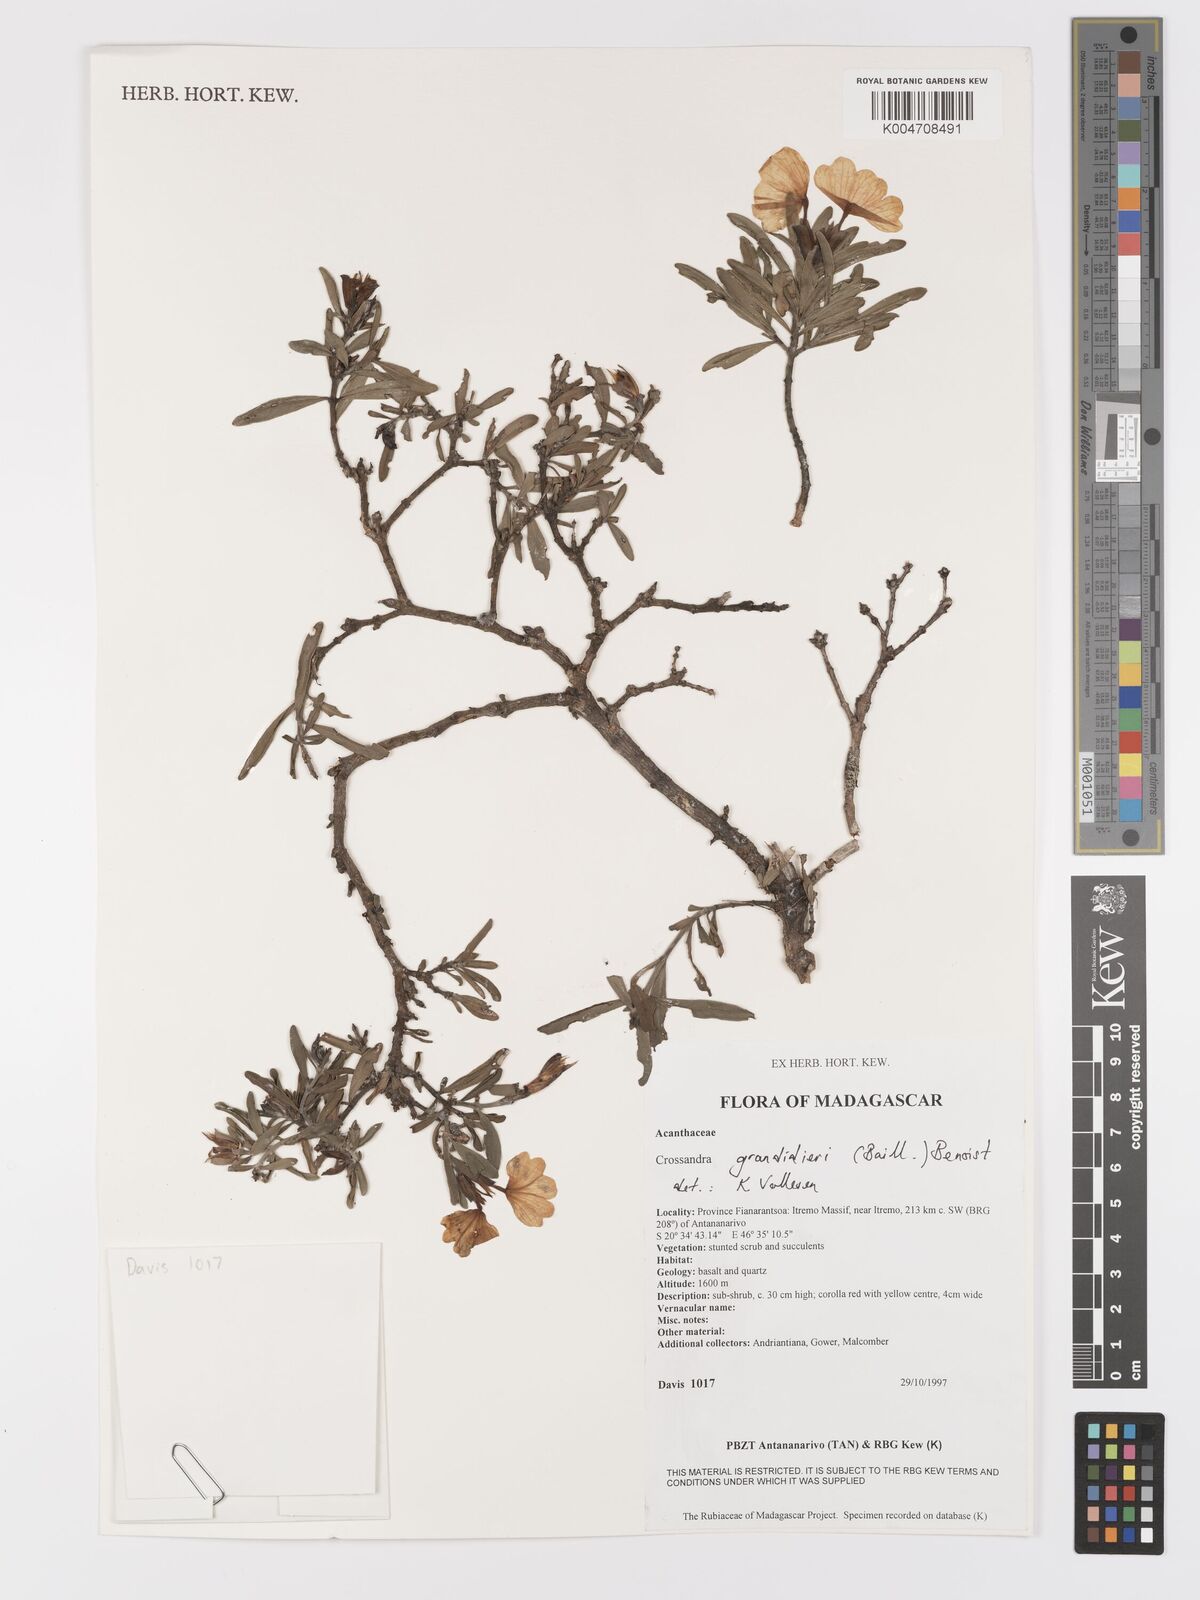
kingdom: Plantae
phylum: Tracheophyta
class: Magnoliopsida
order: Lamiales
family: Acanthaceae
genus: Crossandra
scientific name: Crossandra grandidieri
